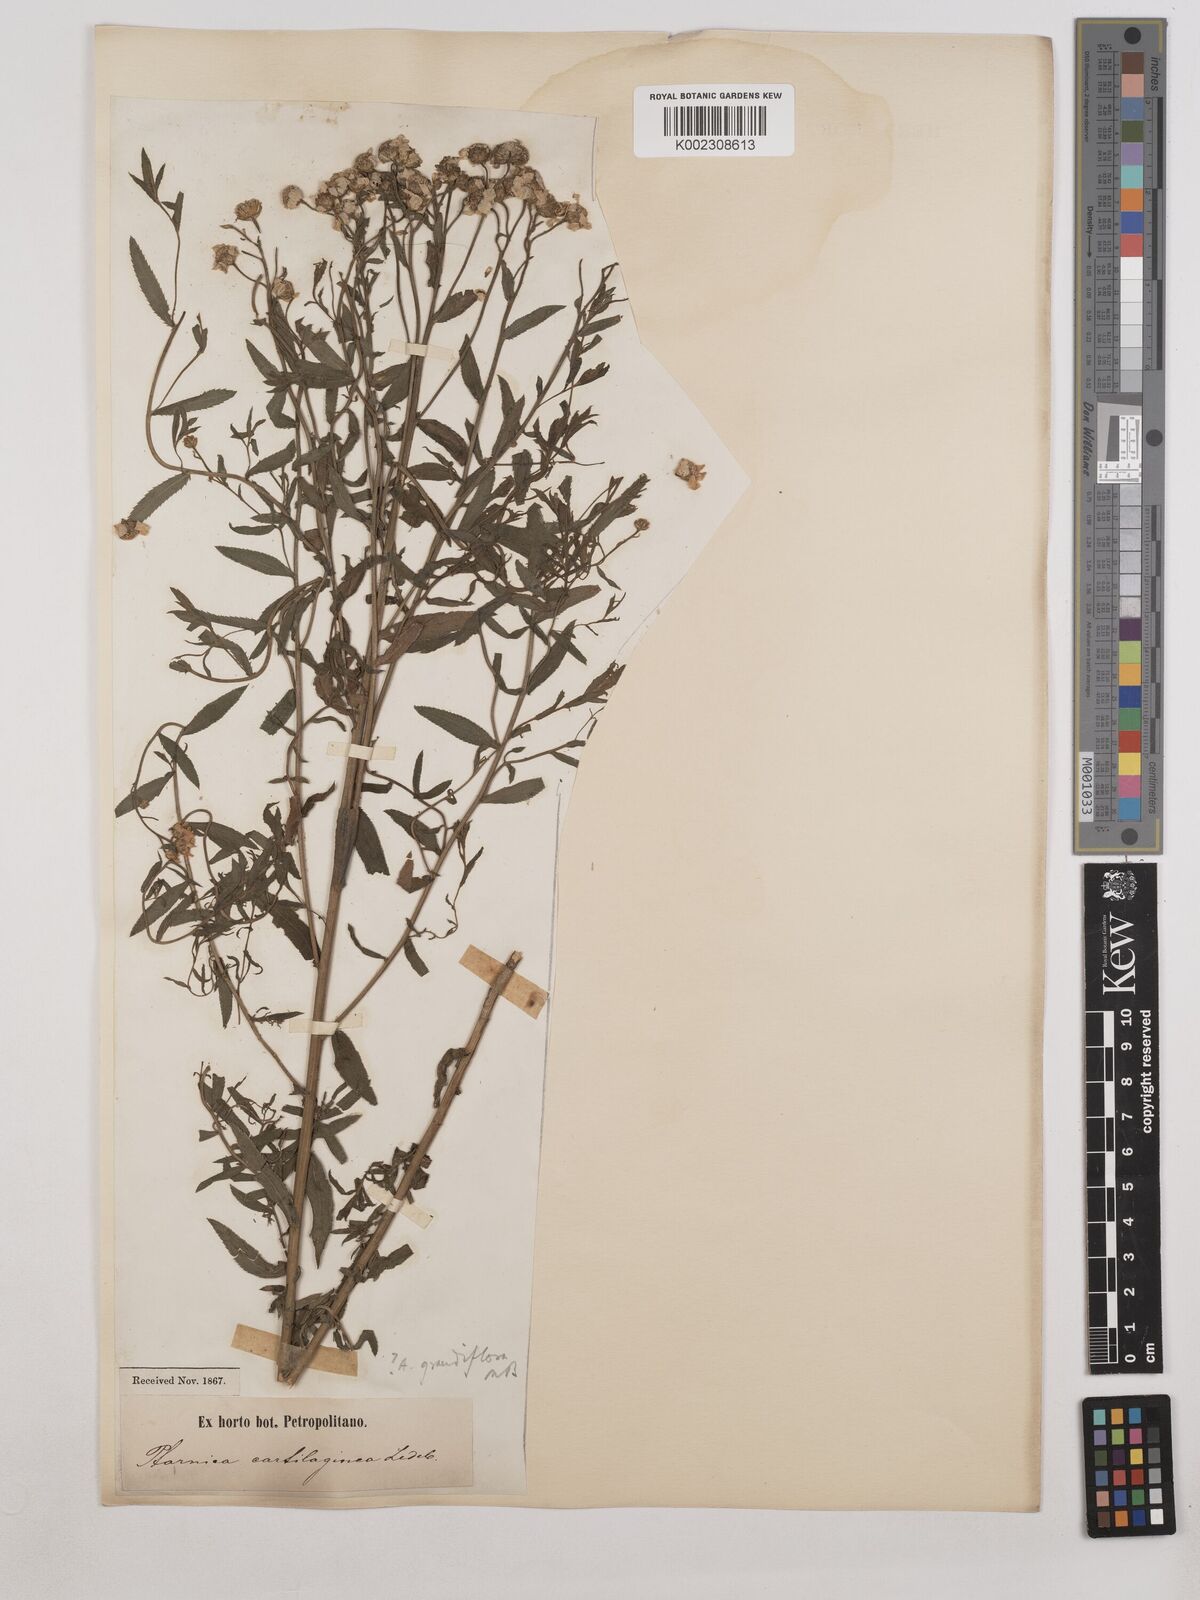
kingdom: Plantae
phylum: Tracheophyta
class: Magnoliopsida
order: Asterales
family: Asteraceae
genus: Achillea
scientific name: Achillea grandifolia
